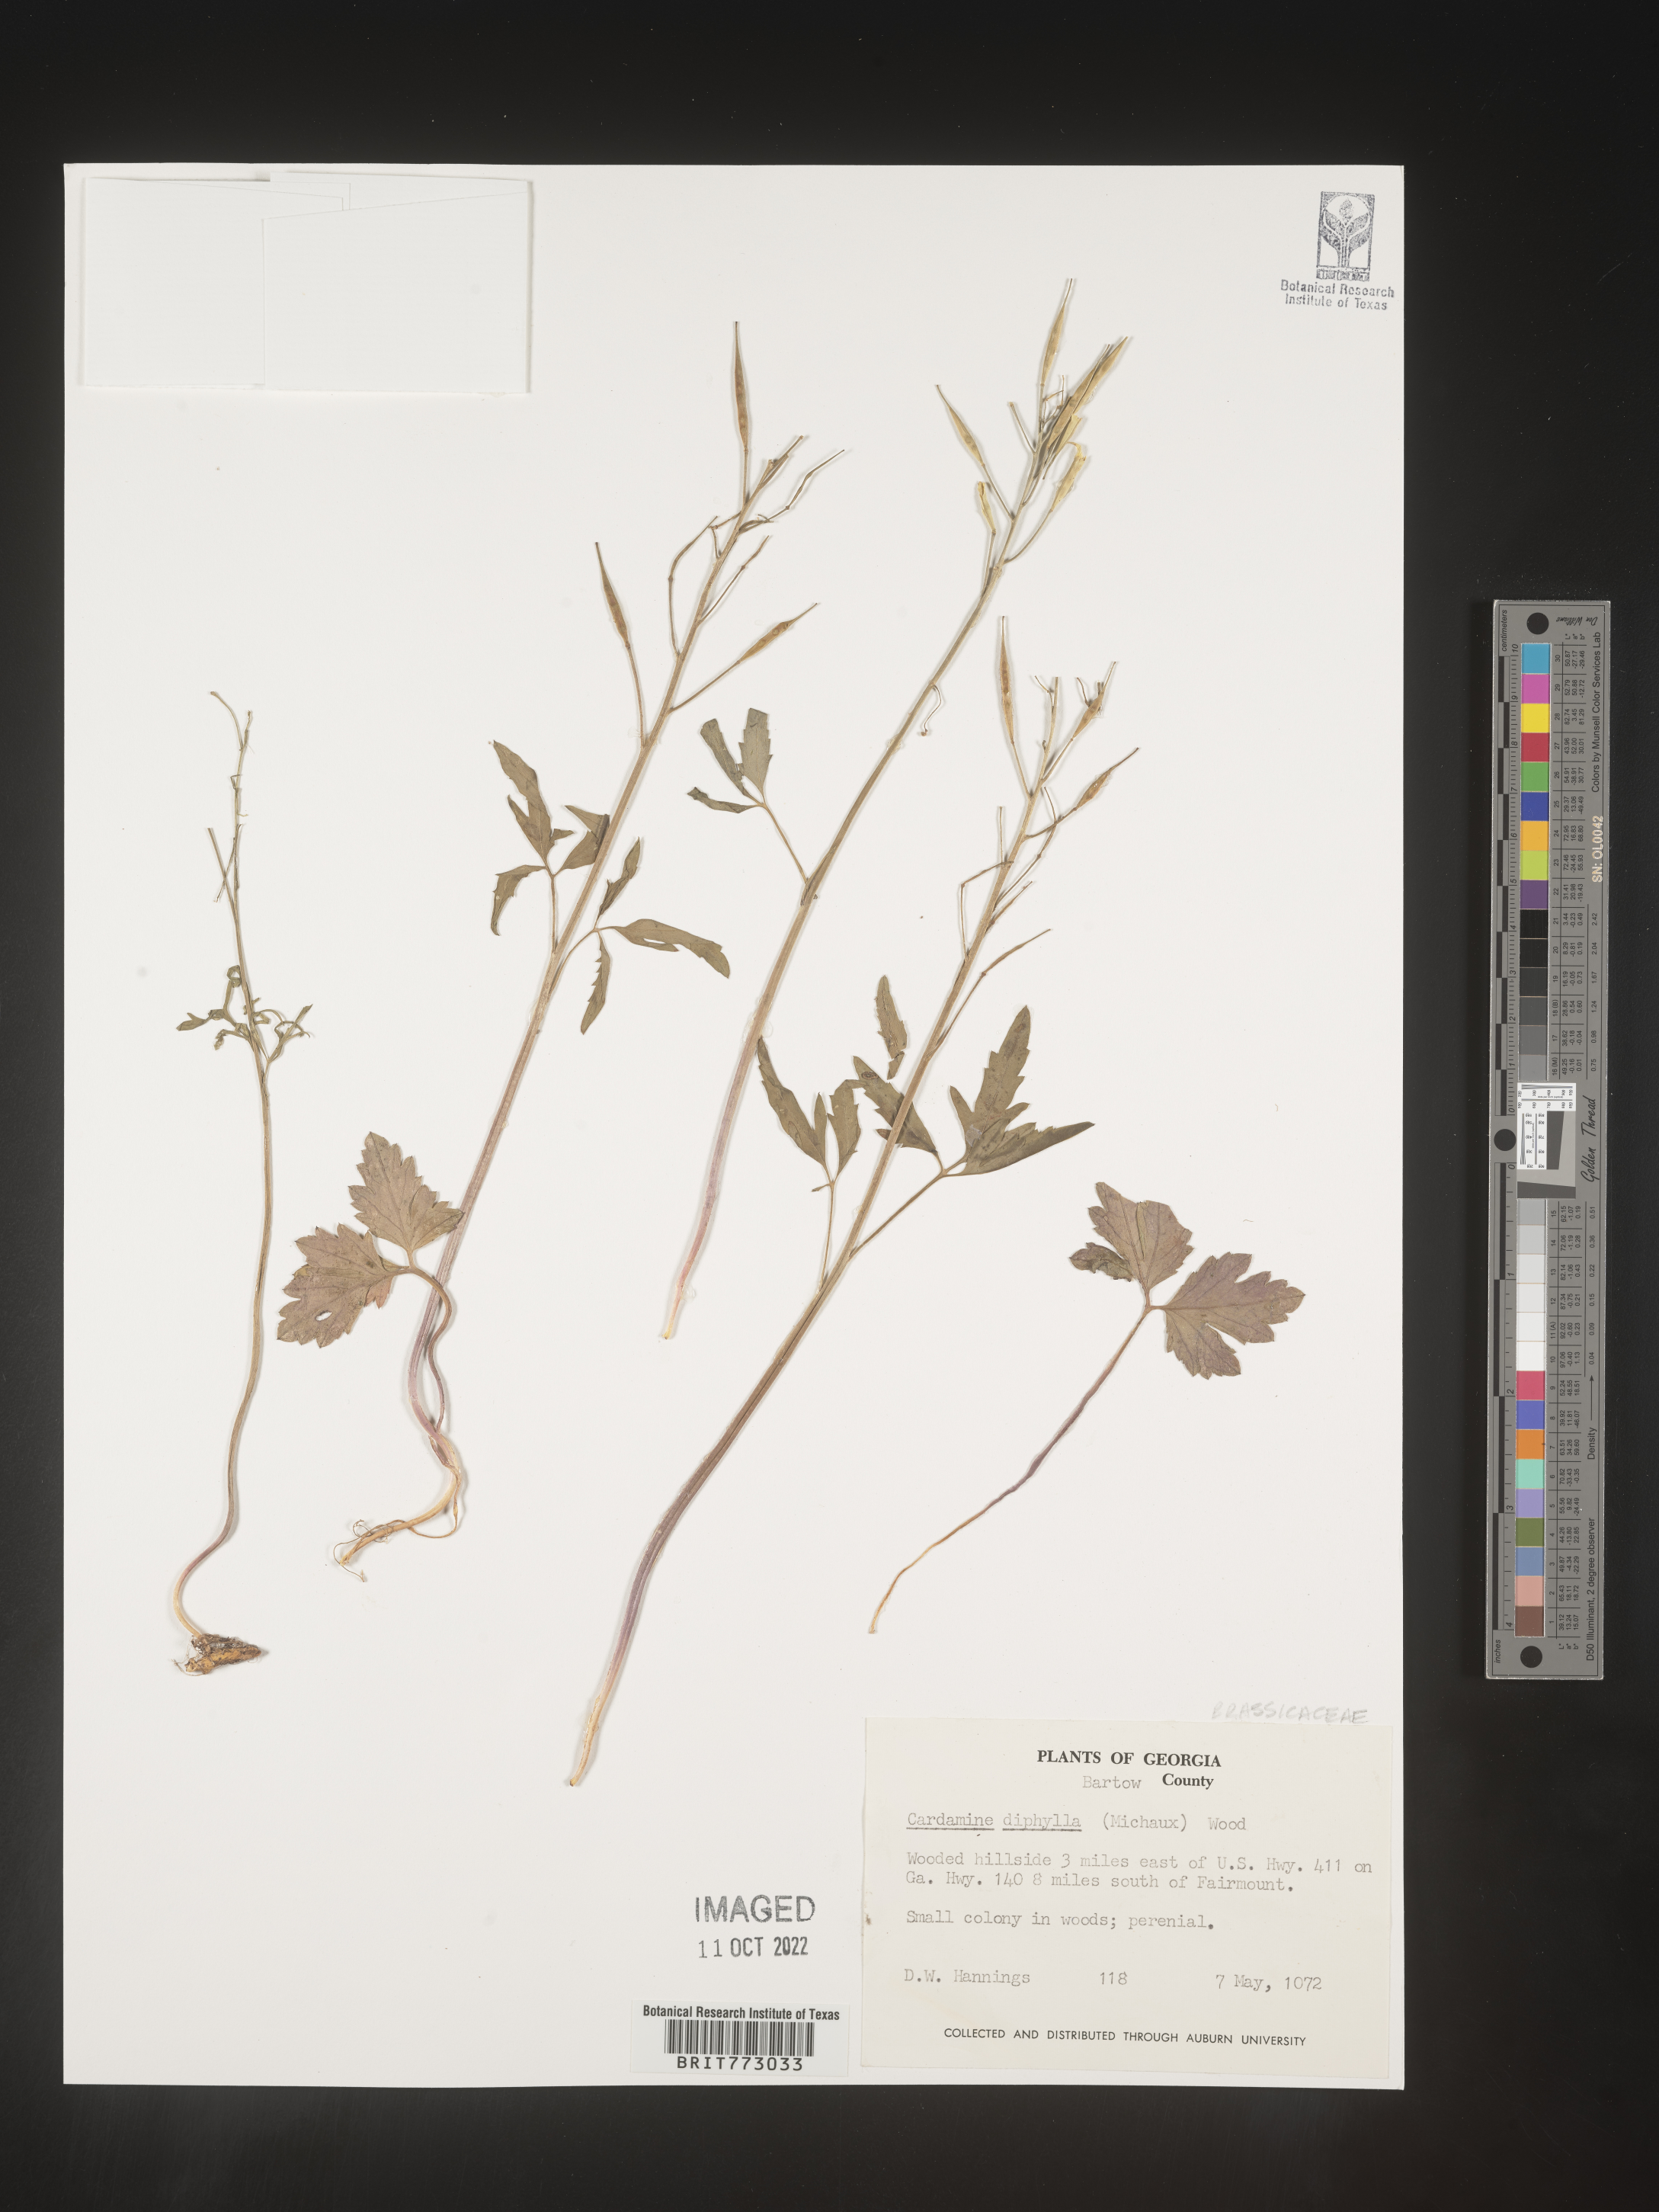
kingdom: Plantae
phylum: Tracheophyta
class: Magnoliopsida
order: Brassicales
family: Brassicaceae
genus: Cardamine
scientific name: Cardamine diphylla
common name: Broad-leaved toothwort
